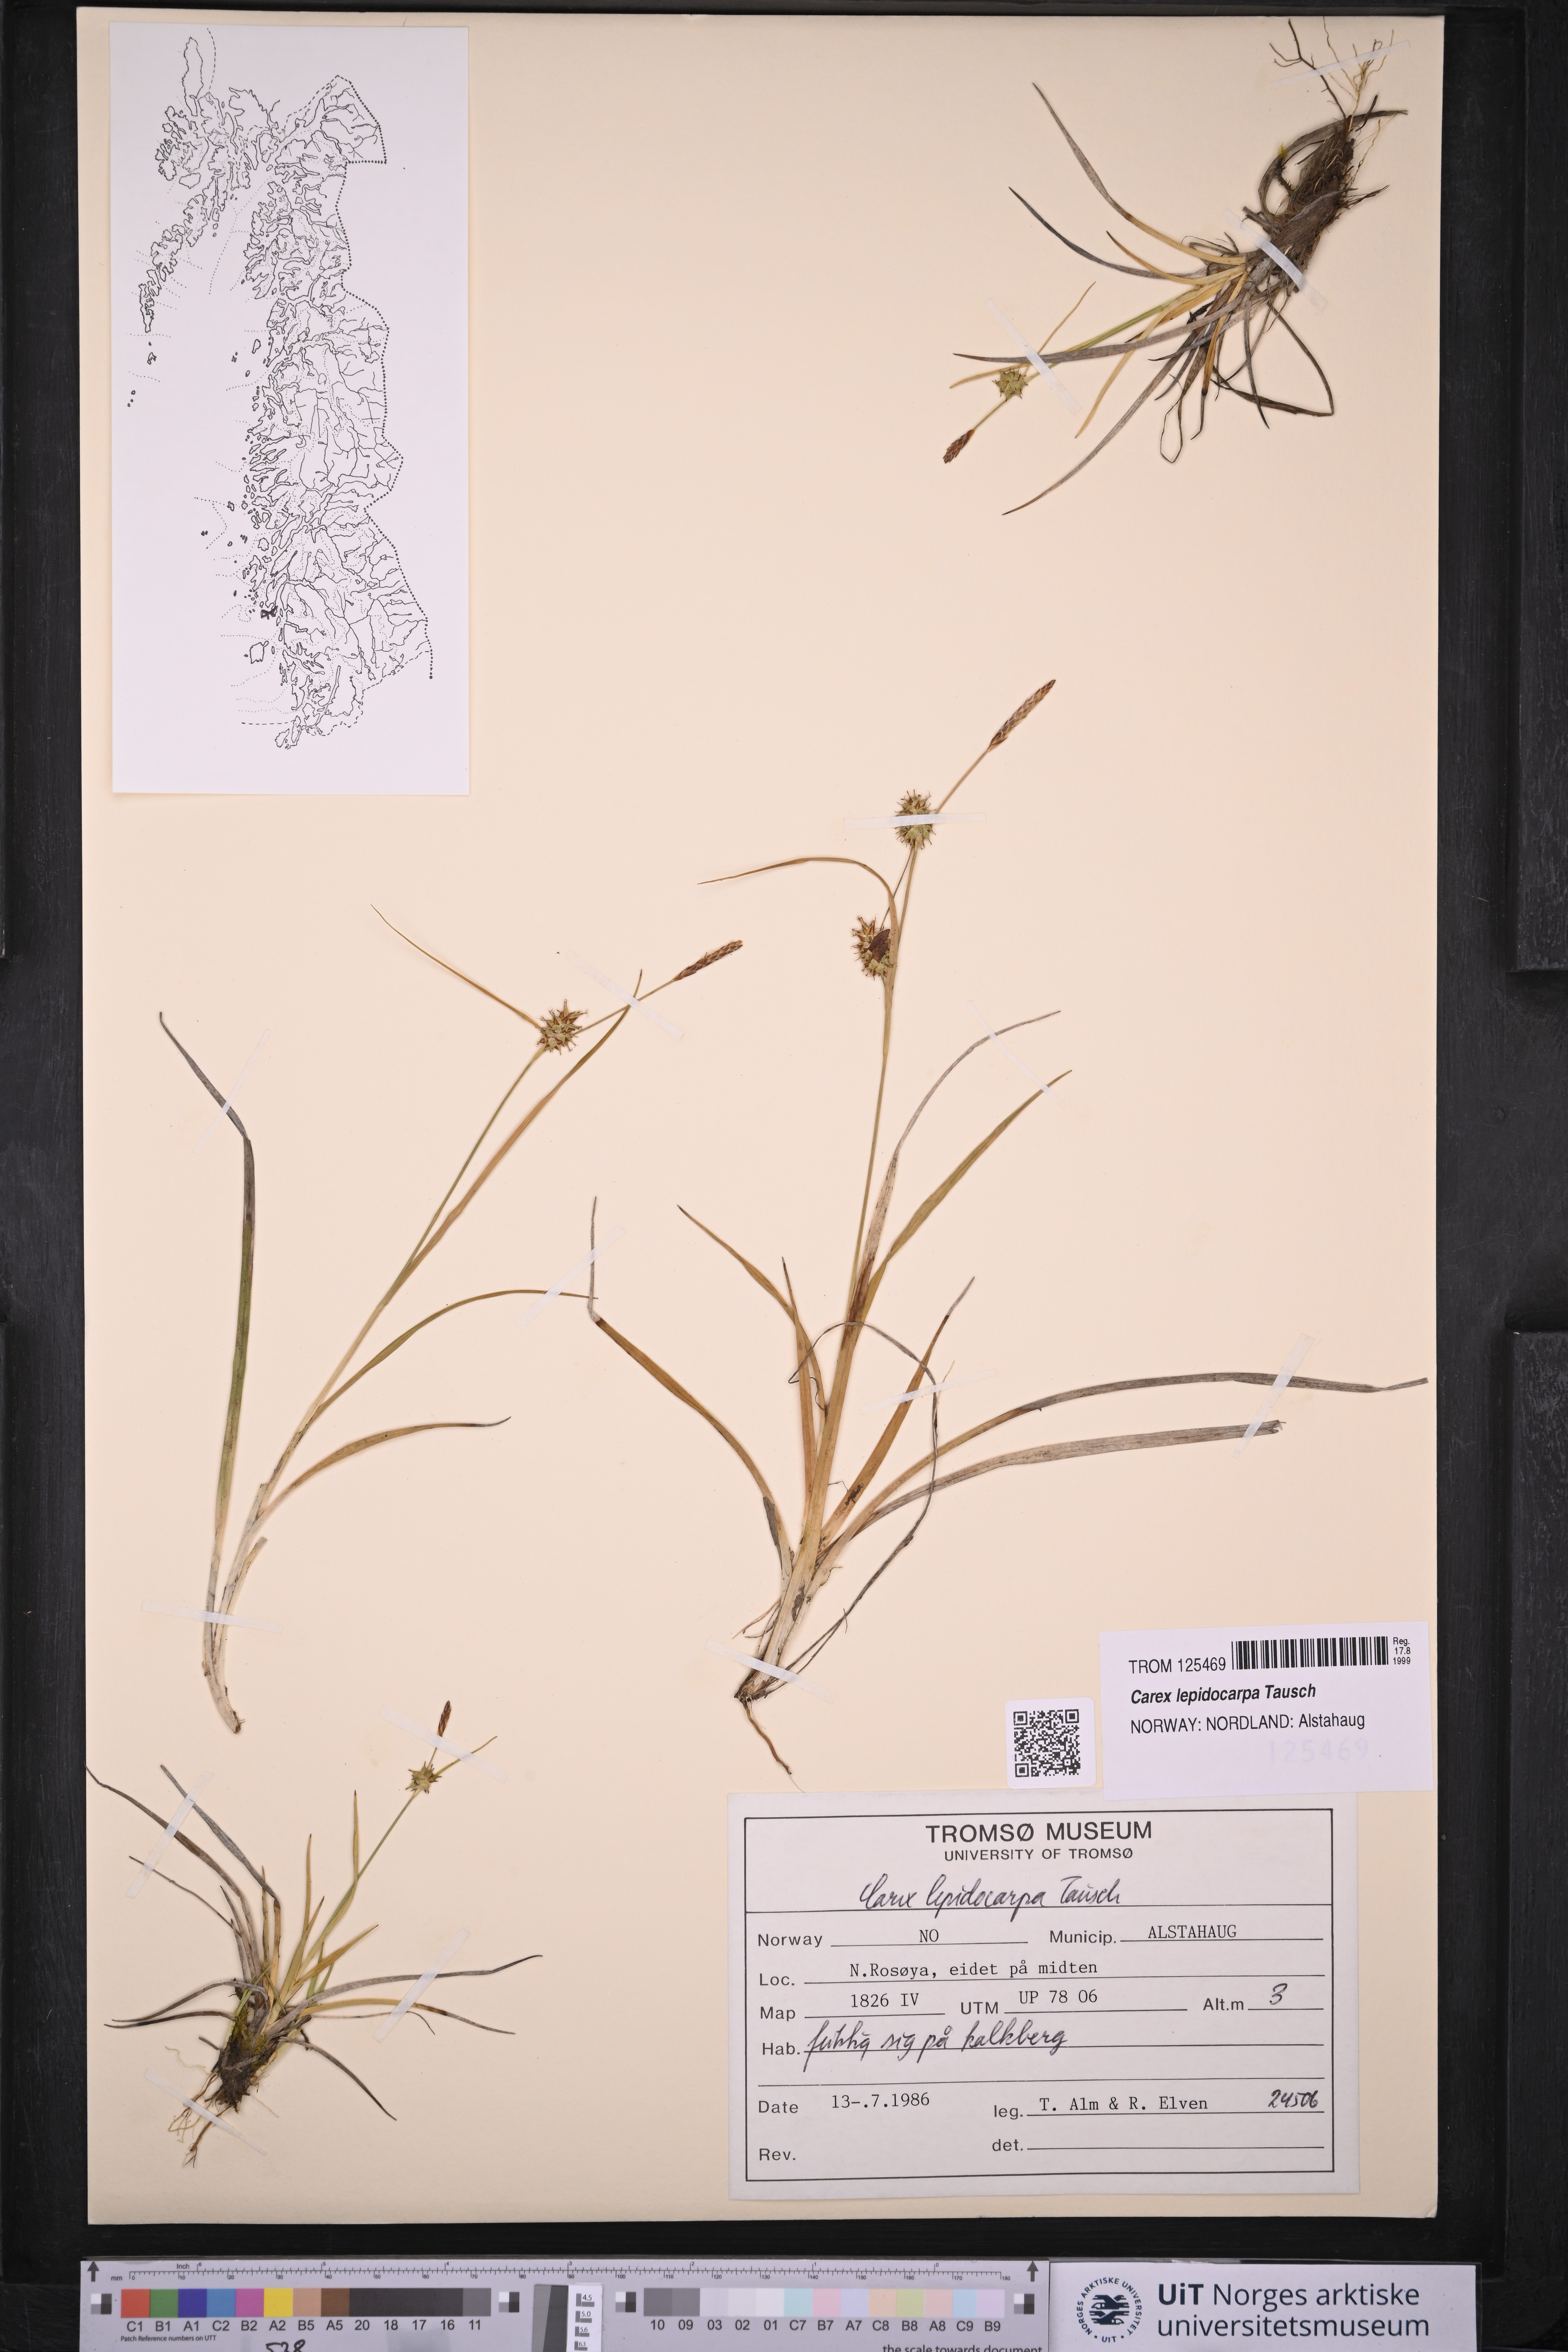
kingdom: Plantae
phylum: Tracheophyta
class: Liliopsida
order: Poales
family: Cyperaceae
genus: Carex
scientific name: Carex lepidocarpa
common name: Long-stalked yellow-sedge
